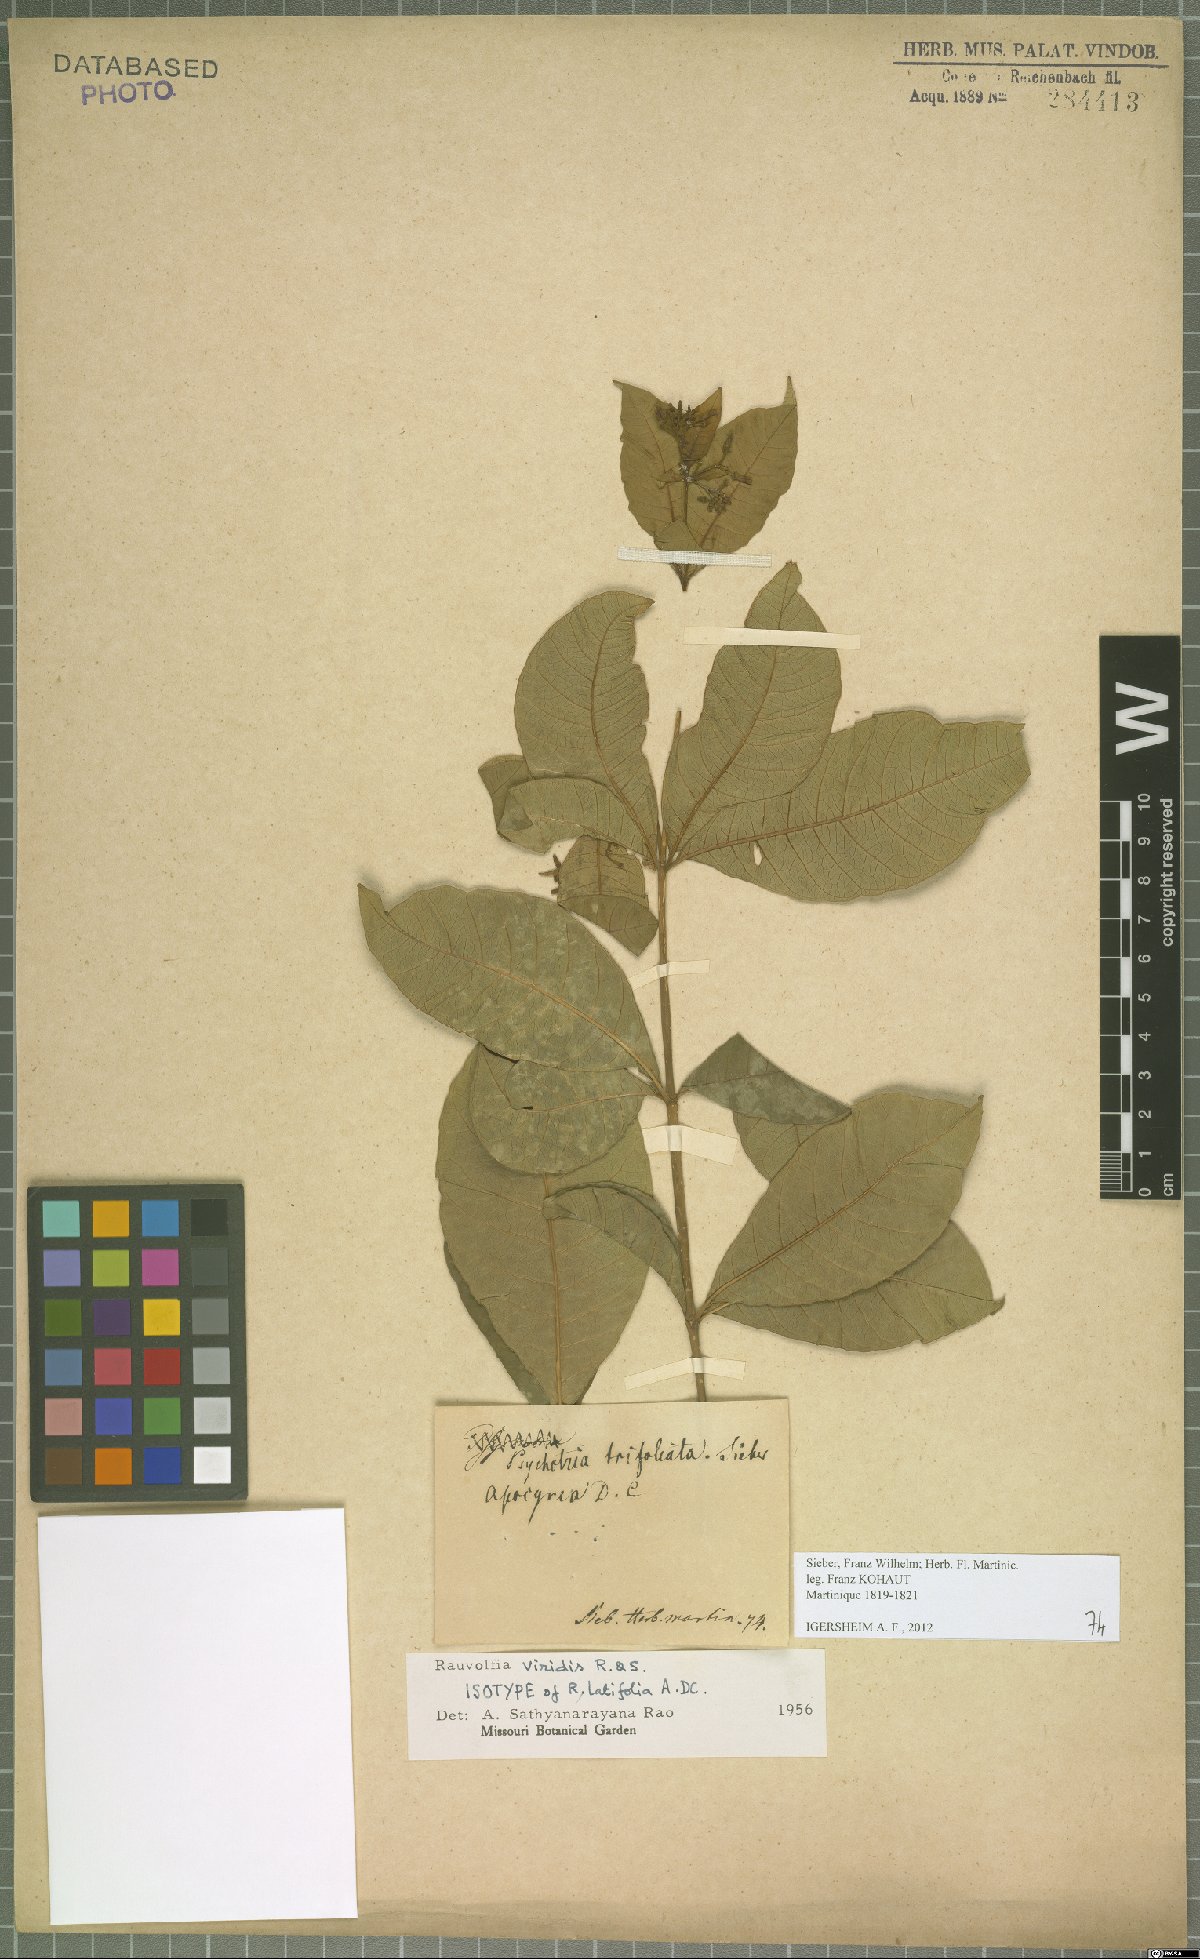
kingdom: Plantae
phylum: Tracheophyta
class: Magnoliopsida
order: Gentianales
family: Apocynaceae
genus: Rauvolfia
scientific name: Rauvolfia viridis
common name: Bellyache
